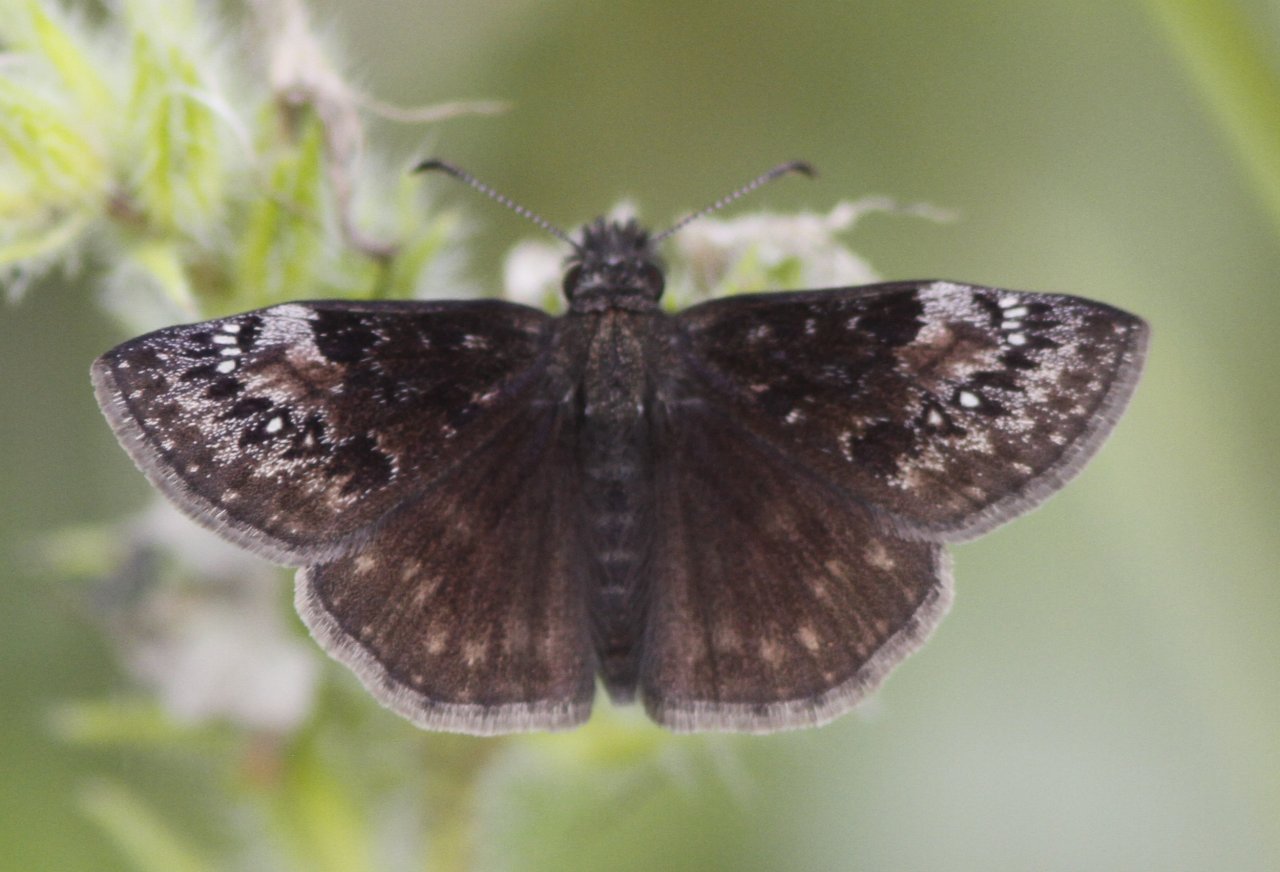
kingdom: Animalia
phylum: Arthropoda
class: Insecta
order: Lepidoptera
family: Hesperiidae
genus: Gesta
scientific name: Gesta
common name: Columbine Duskywing
